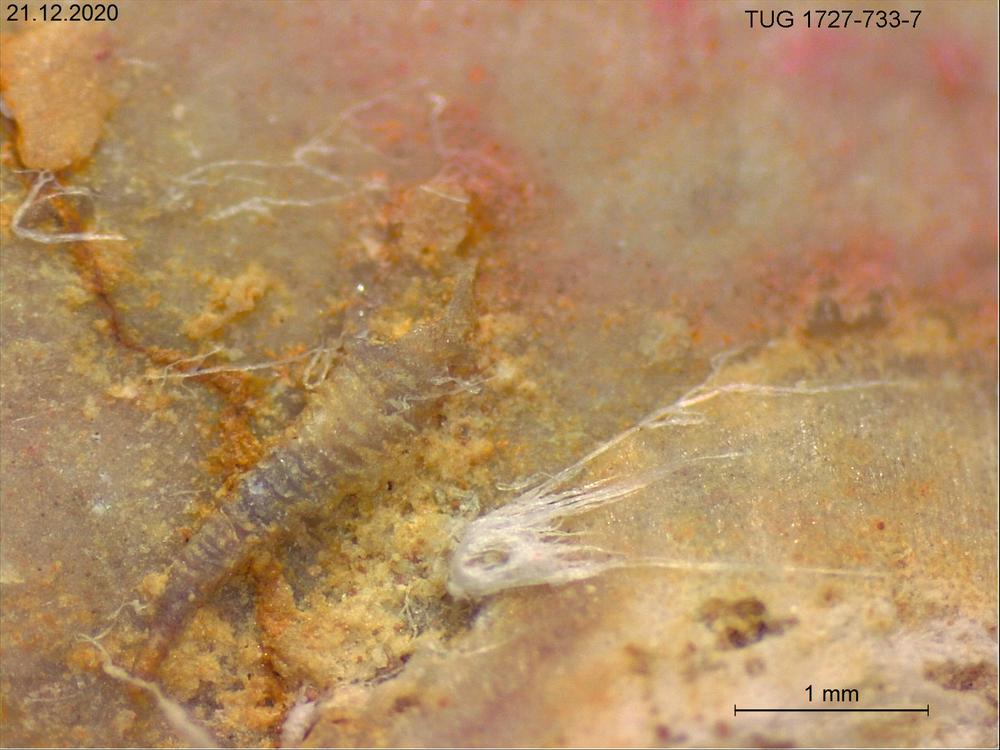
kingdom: Animalia
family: Cornulitidae
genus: Cornulites
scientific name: Cornulites
